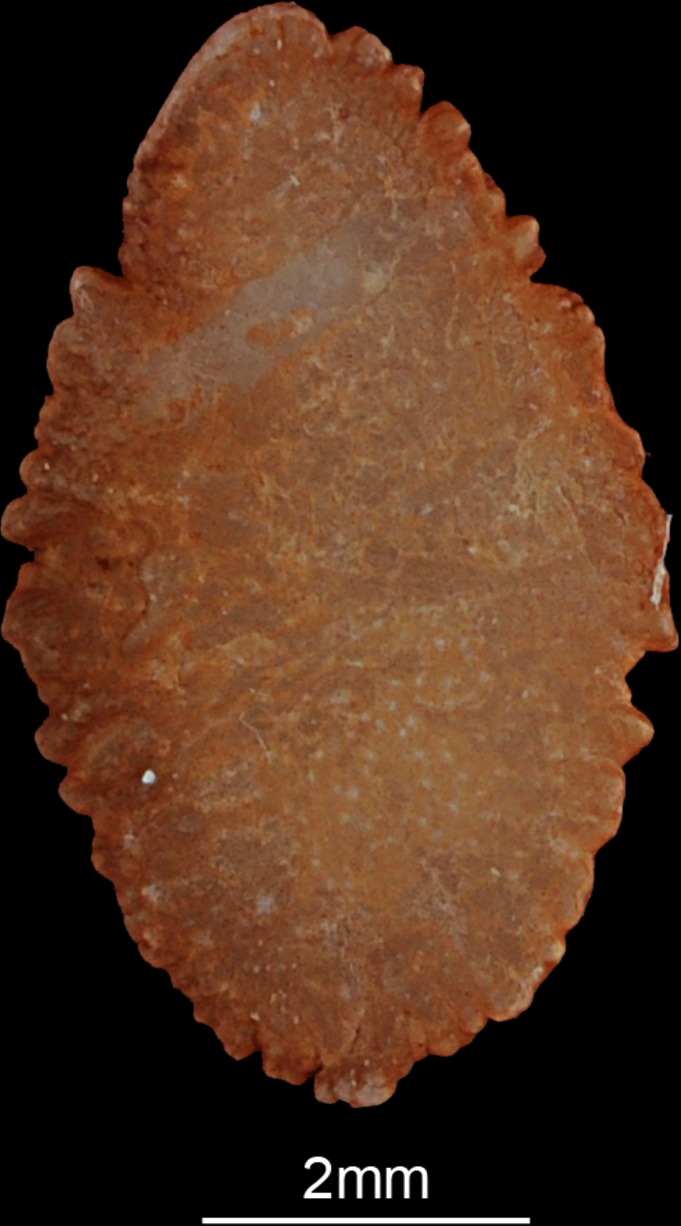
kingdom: Animalia
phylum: Chordata
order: Perciformes
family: Cichlidae
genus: Sarotherodon
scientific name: Sarotherodon galilaeus
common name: Mango tilapia
